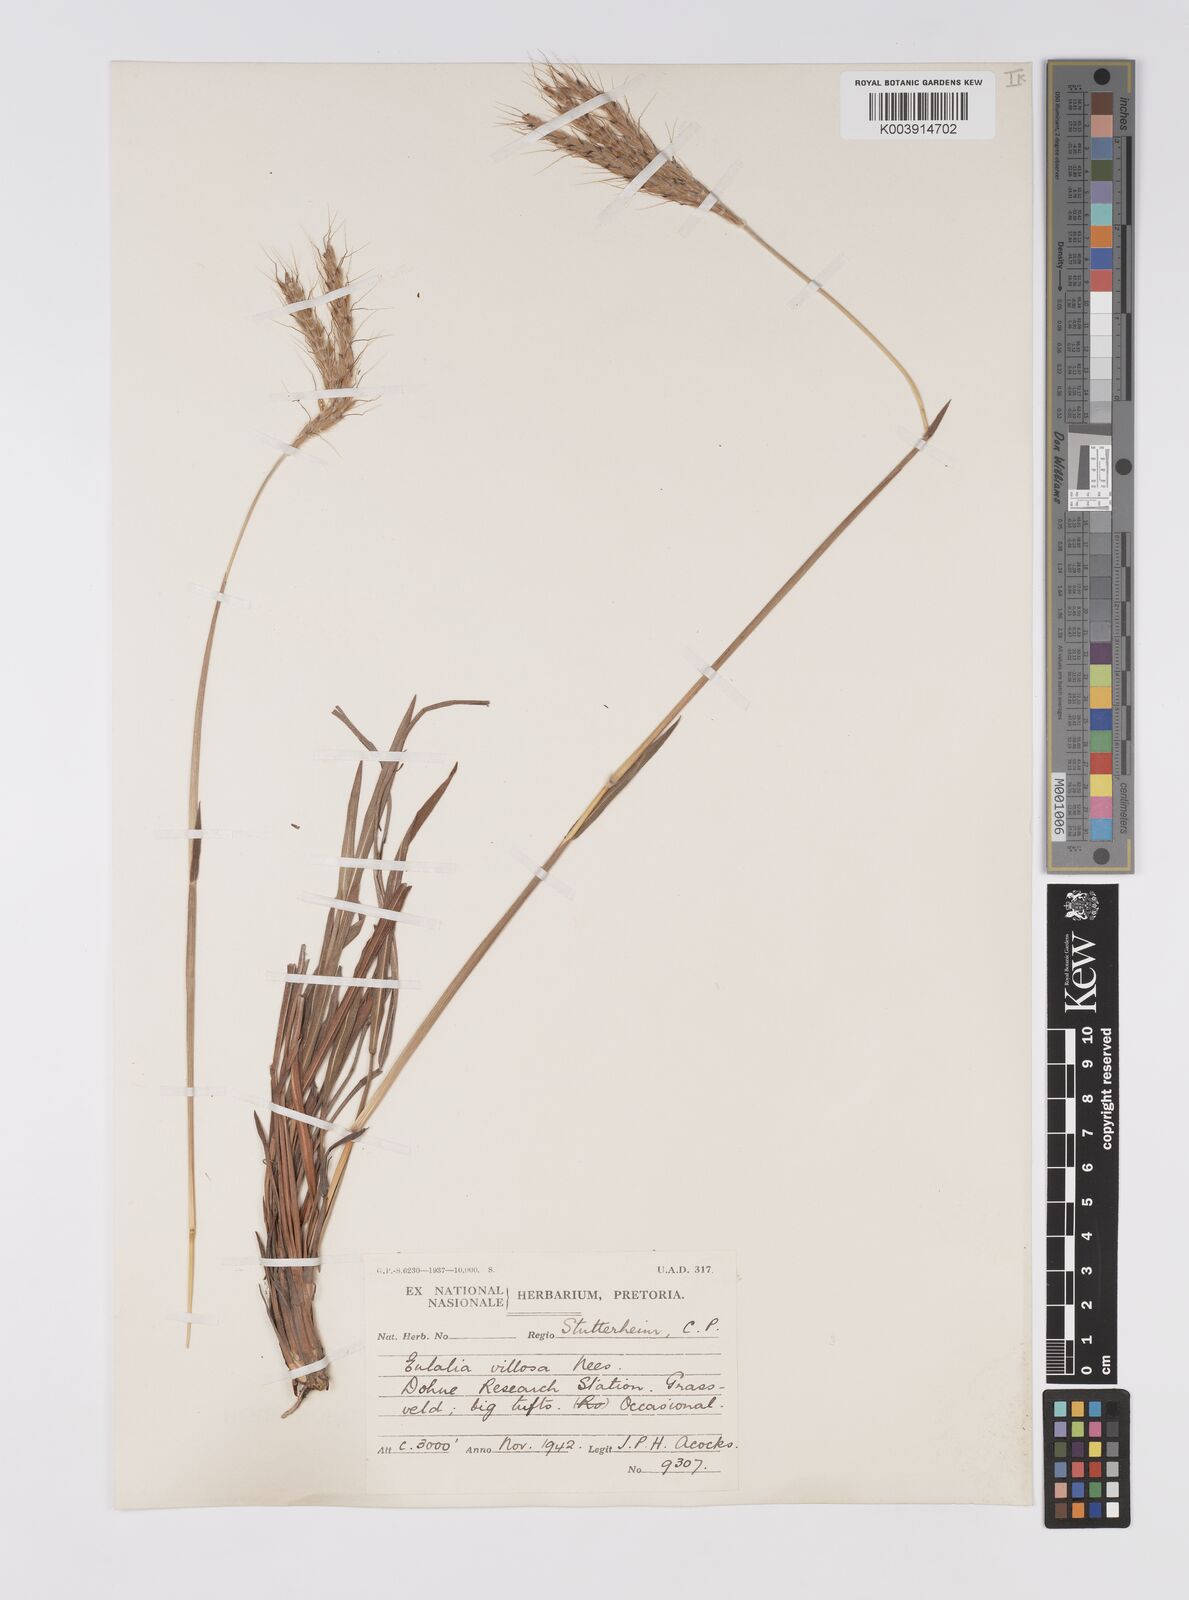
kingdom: Plantae
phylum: Tracheophyta
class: Liliopsida
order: Poales
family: Poaceae
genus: Eulalia
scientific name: Eulalia villosa
